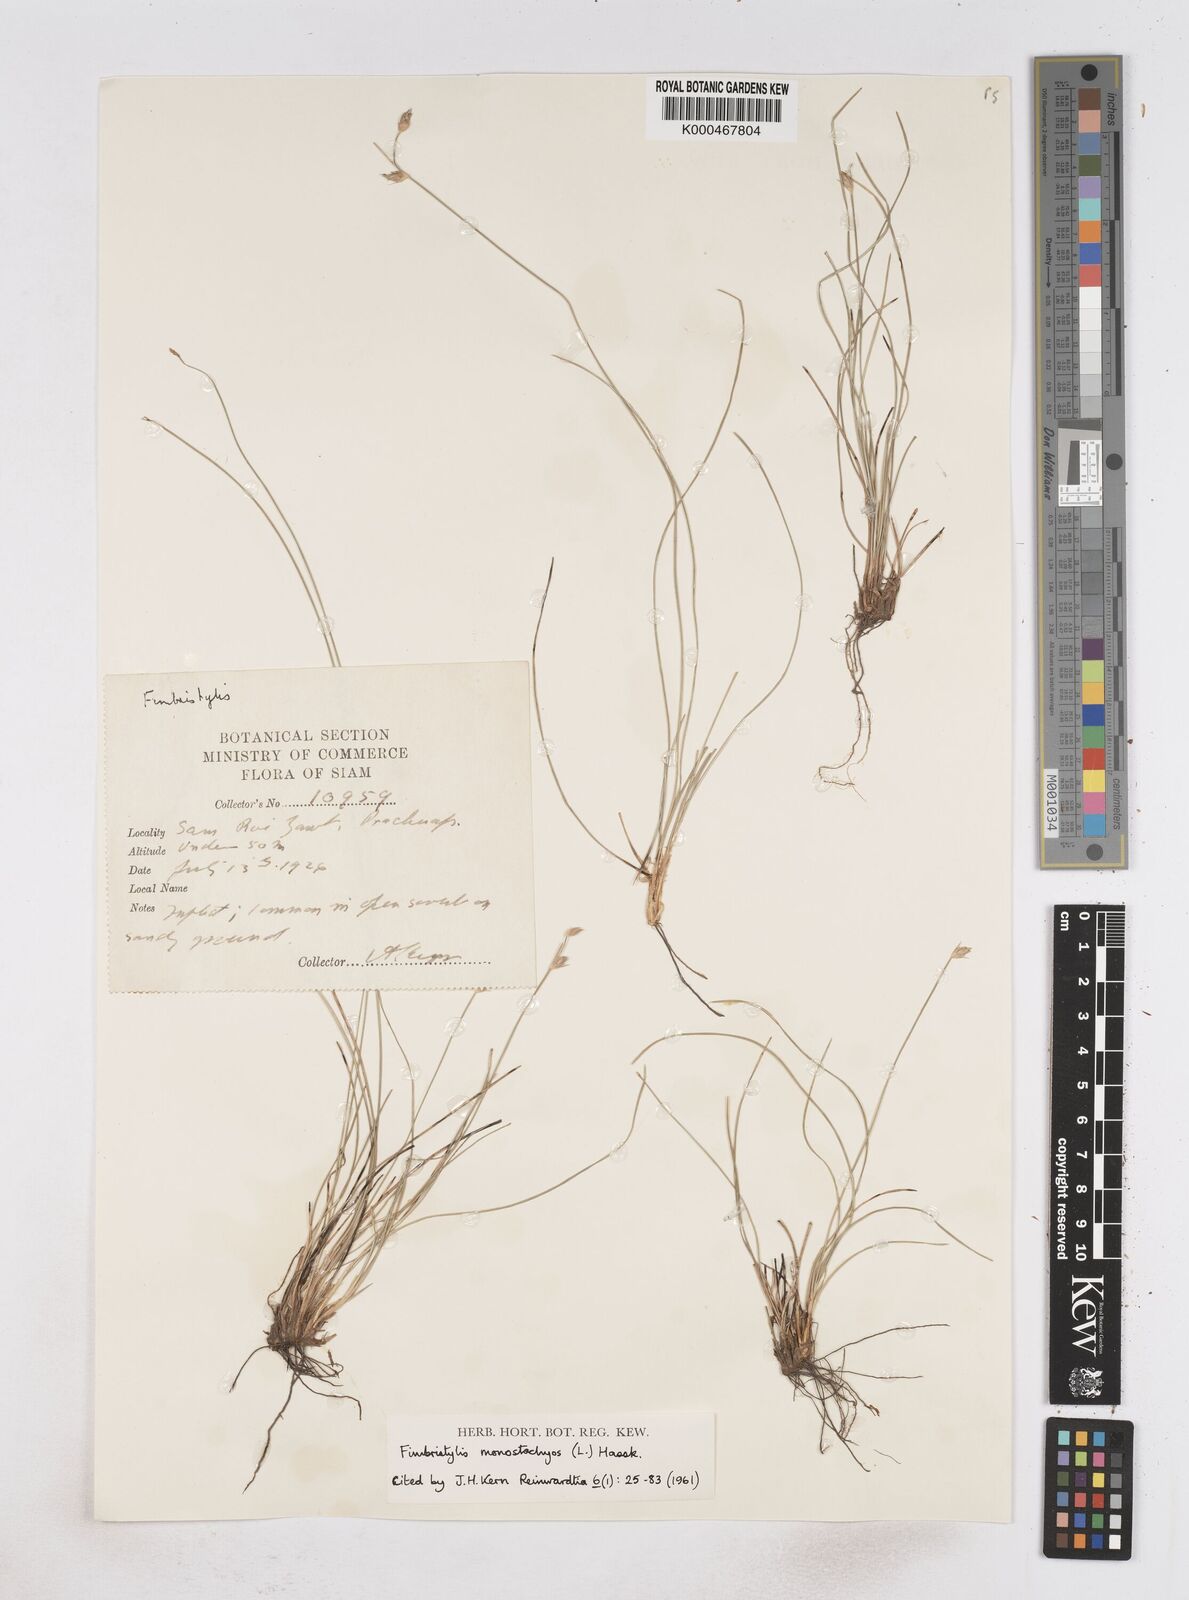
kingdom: Plantae
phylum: Tracheophyta
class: Liliopsida
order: Poales
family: Cyperaceae
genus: Abildgaardia
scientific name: Abildgaardia ovata
